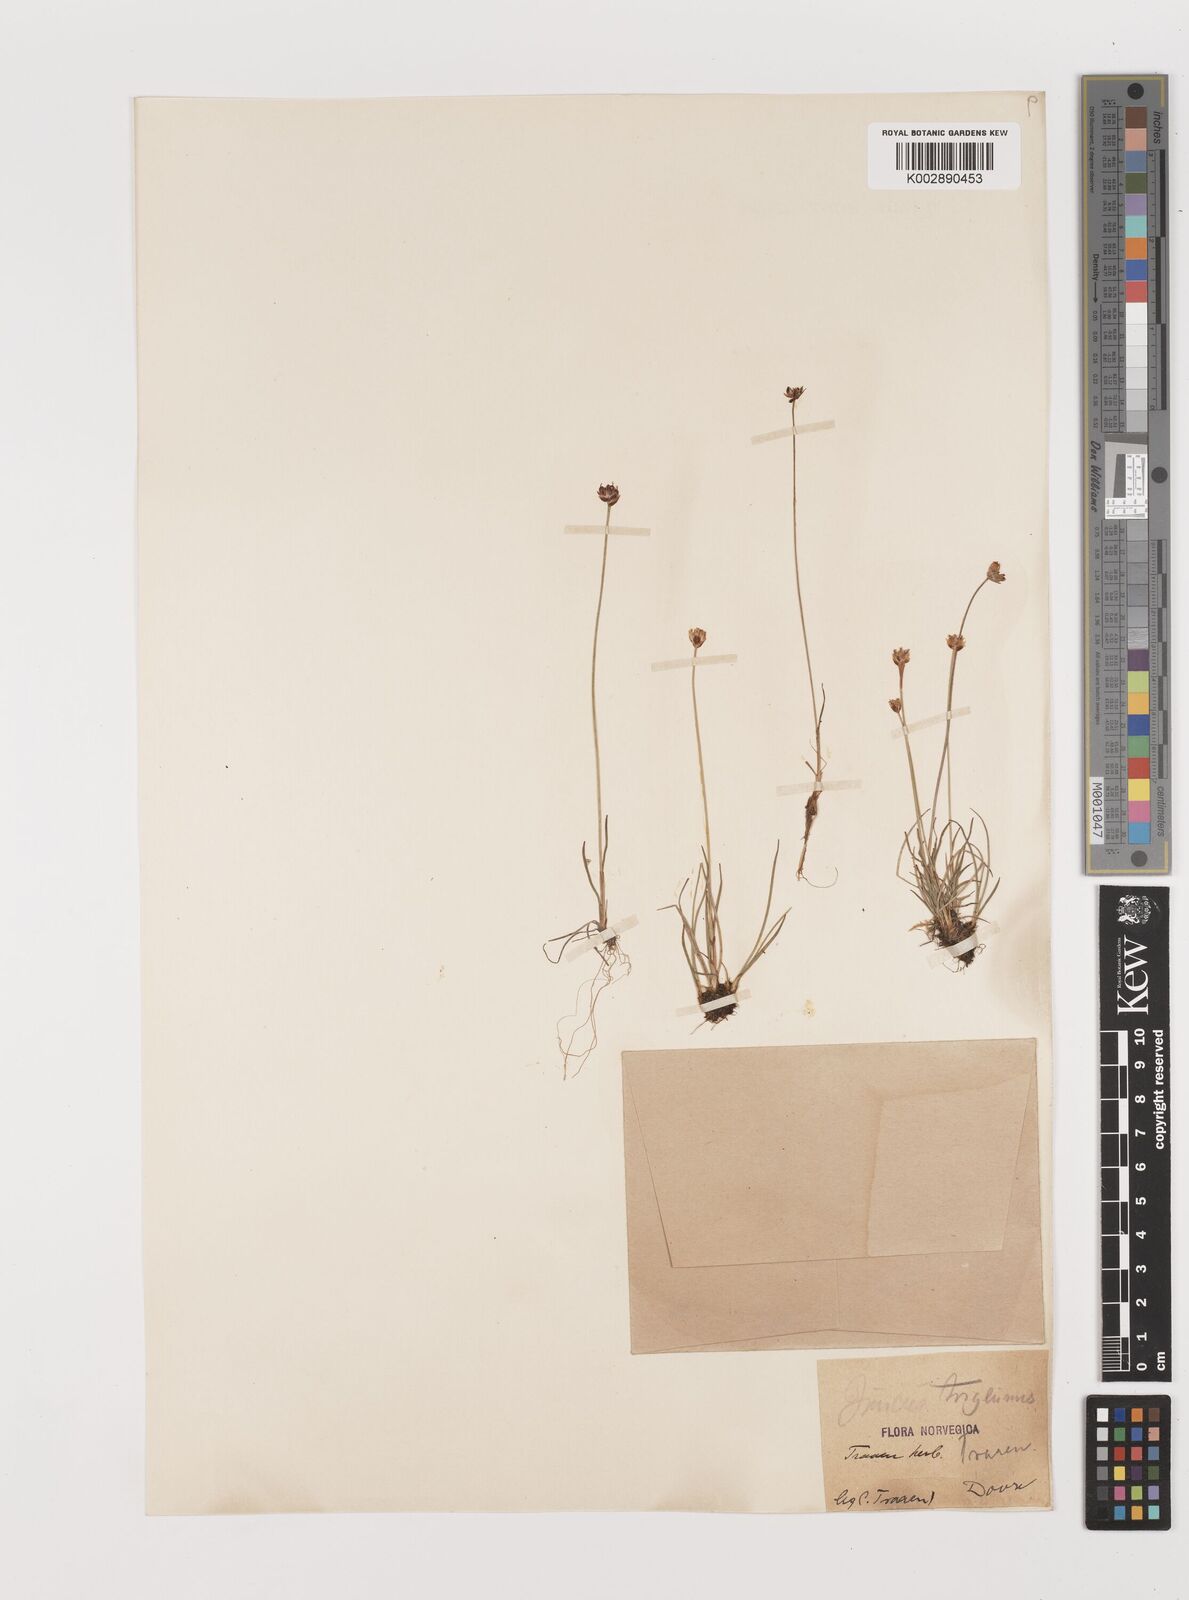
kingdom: Plantae
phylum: Tracheophyta
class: Liliopsida
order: Poales
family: Juncaceae
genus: Juncus
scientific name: Juncus triglumis
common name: Three-flowered rush
